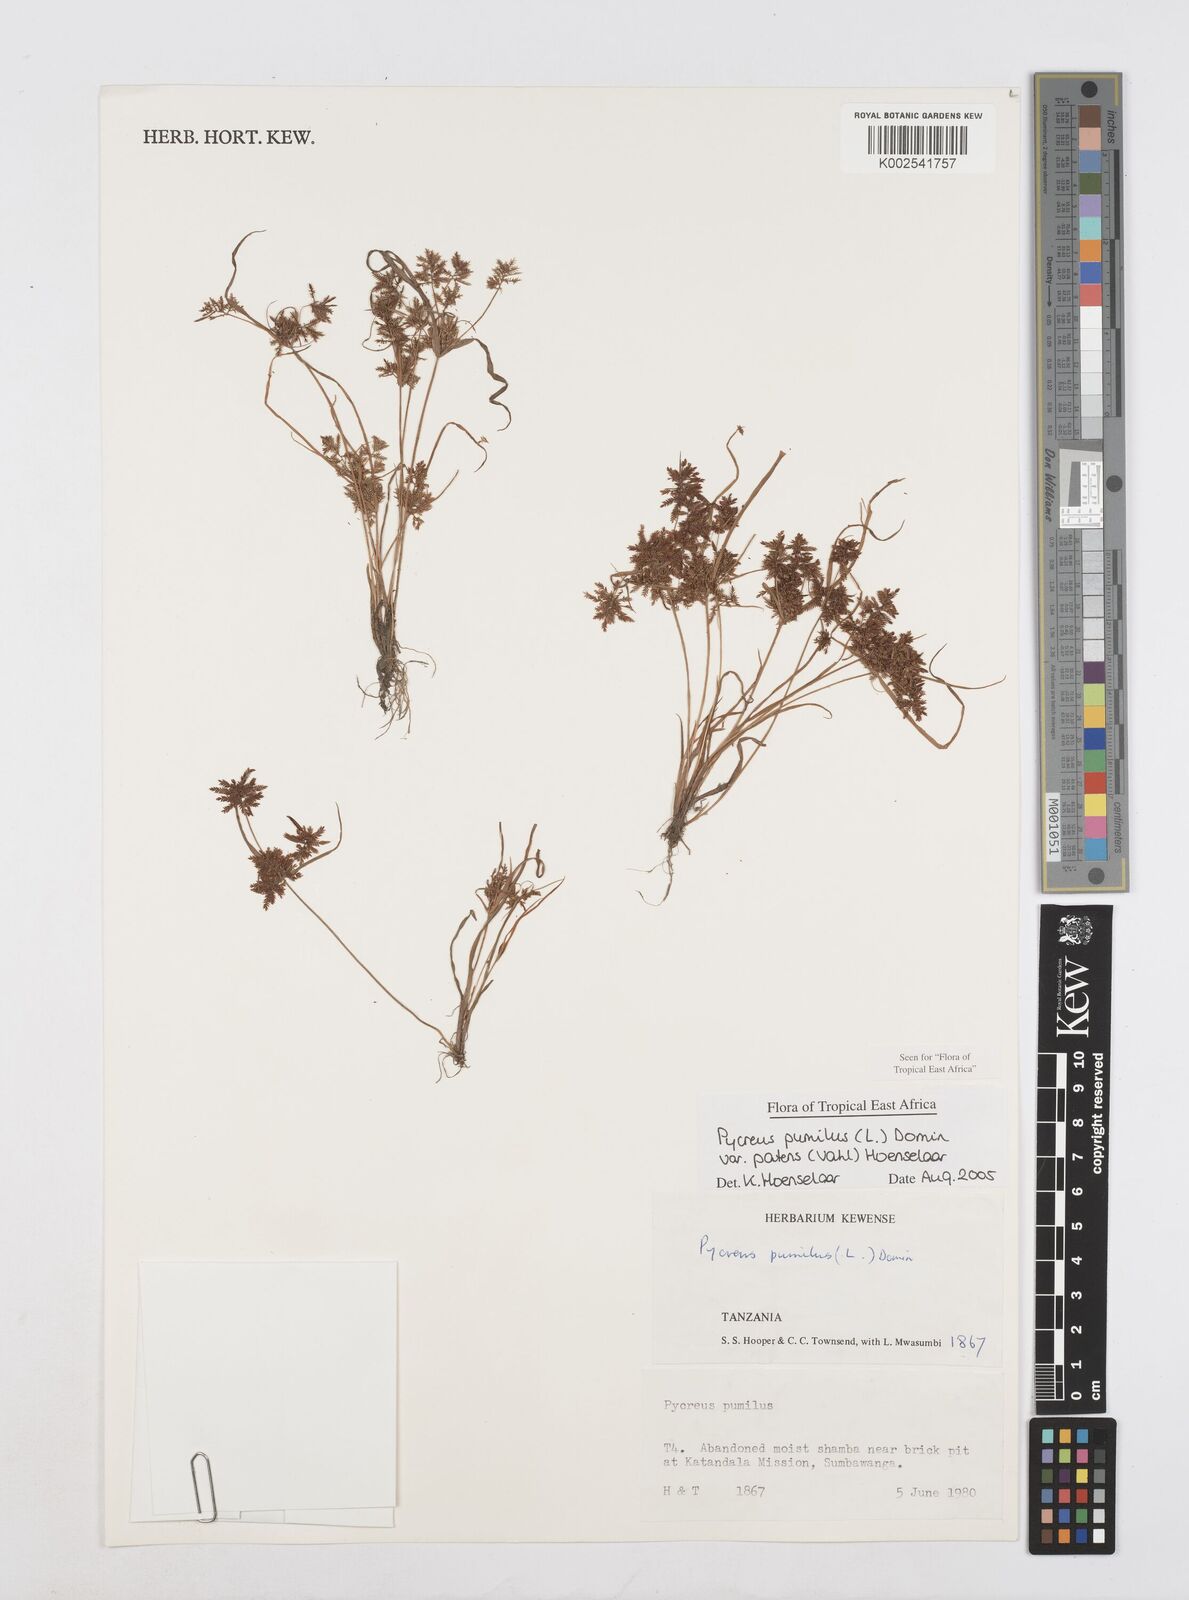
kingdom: Plantae
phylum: Tracheophyta
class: Liliopsida
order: Poales
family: Cyperaceae
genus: Cyperus
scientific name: Cyperus pumilus
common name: Low flatsedge
